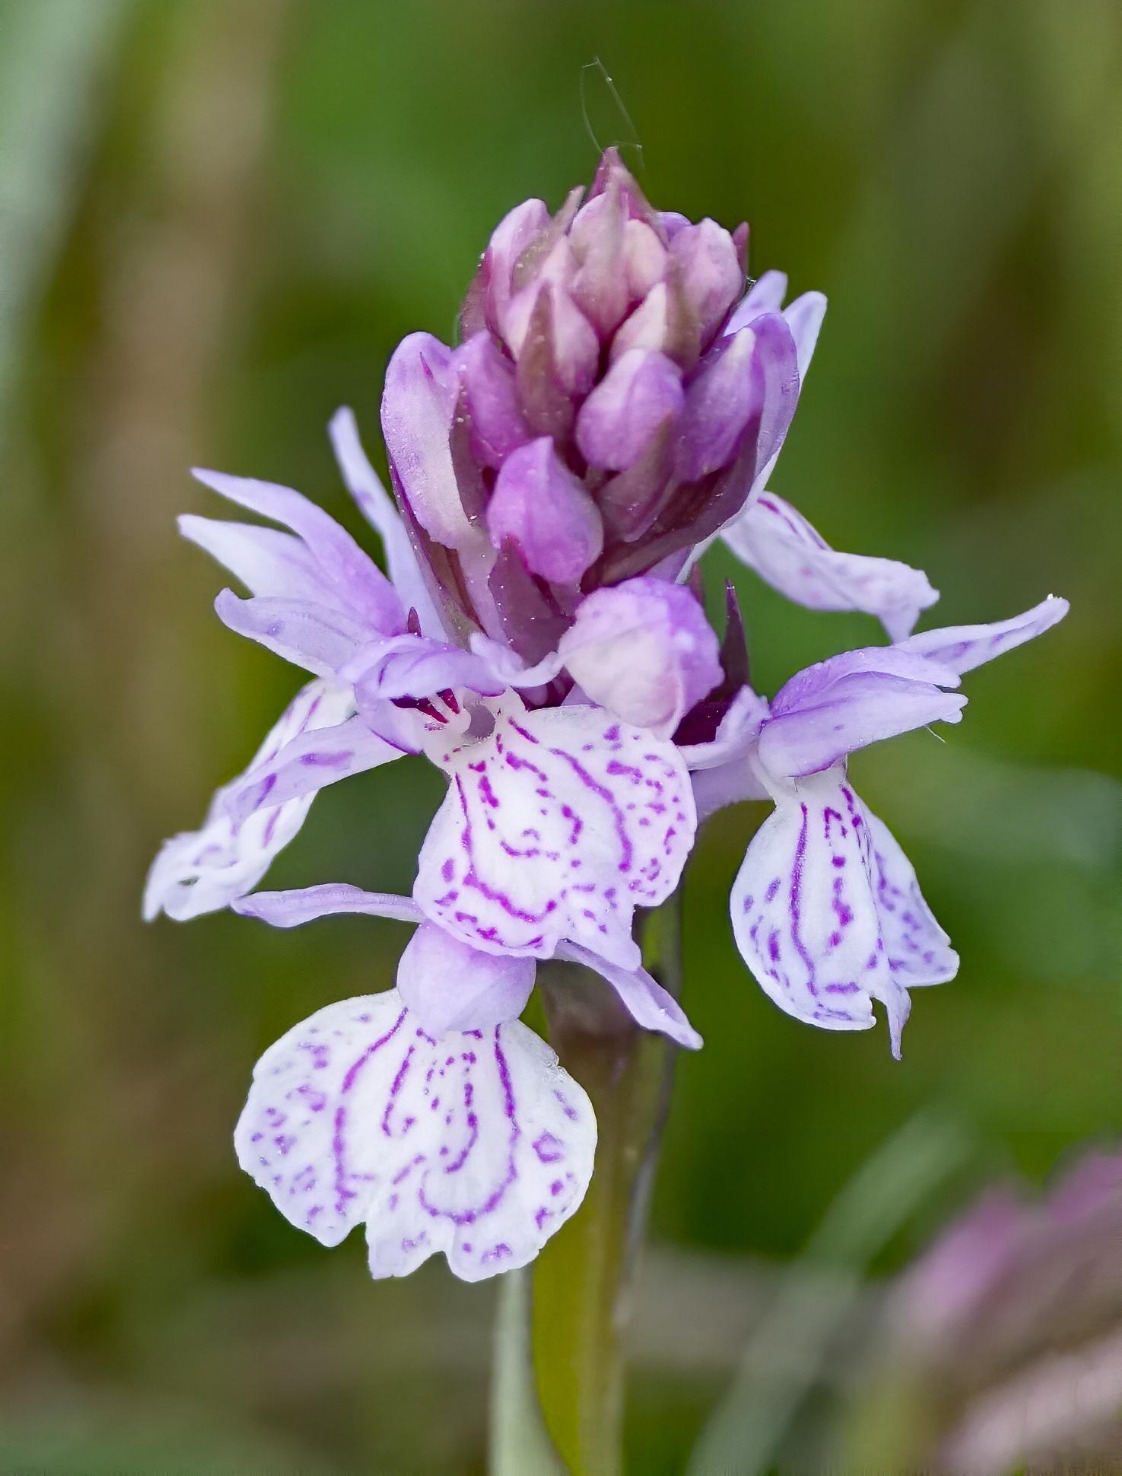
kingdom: Plantae
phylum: Tracheophyta
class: Liliopsida
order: Asparagales
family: Orchidaceae
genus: Dactylorhiza
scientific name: Dactylorhiza maculata
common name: Plettet gøgeurt
